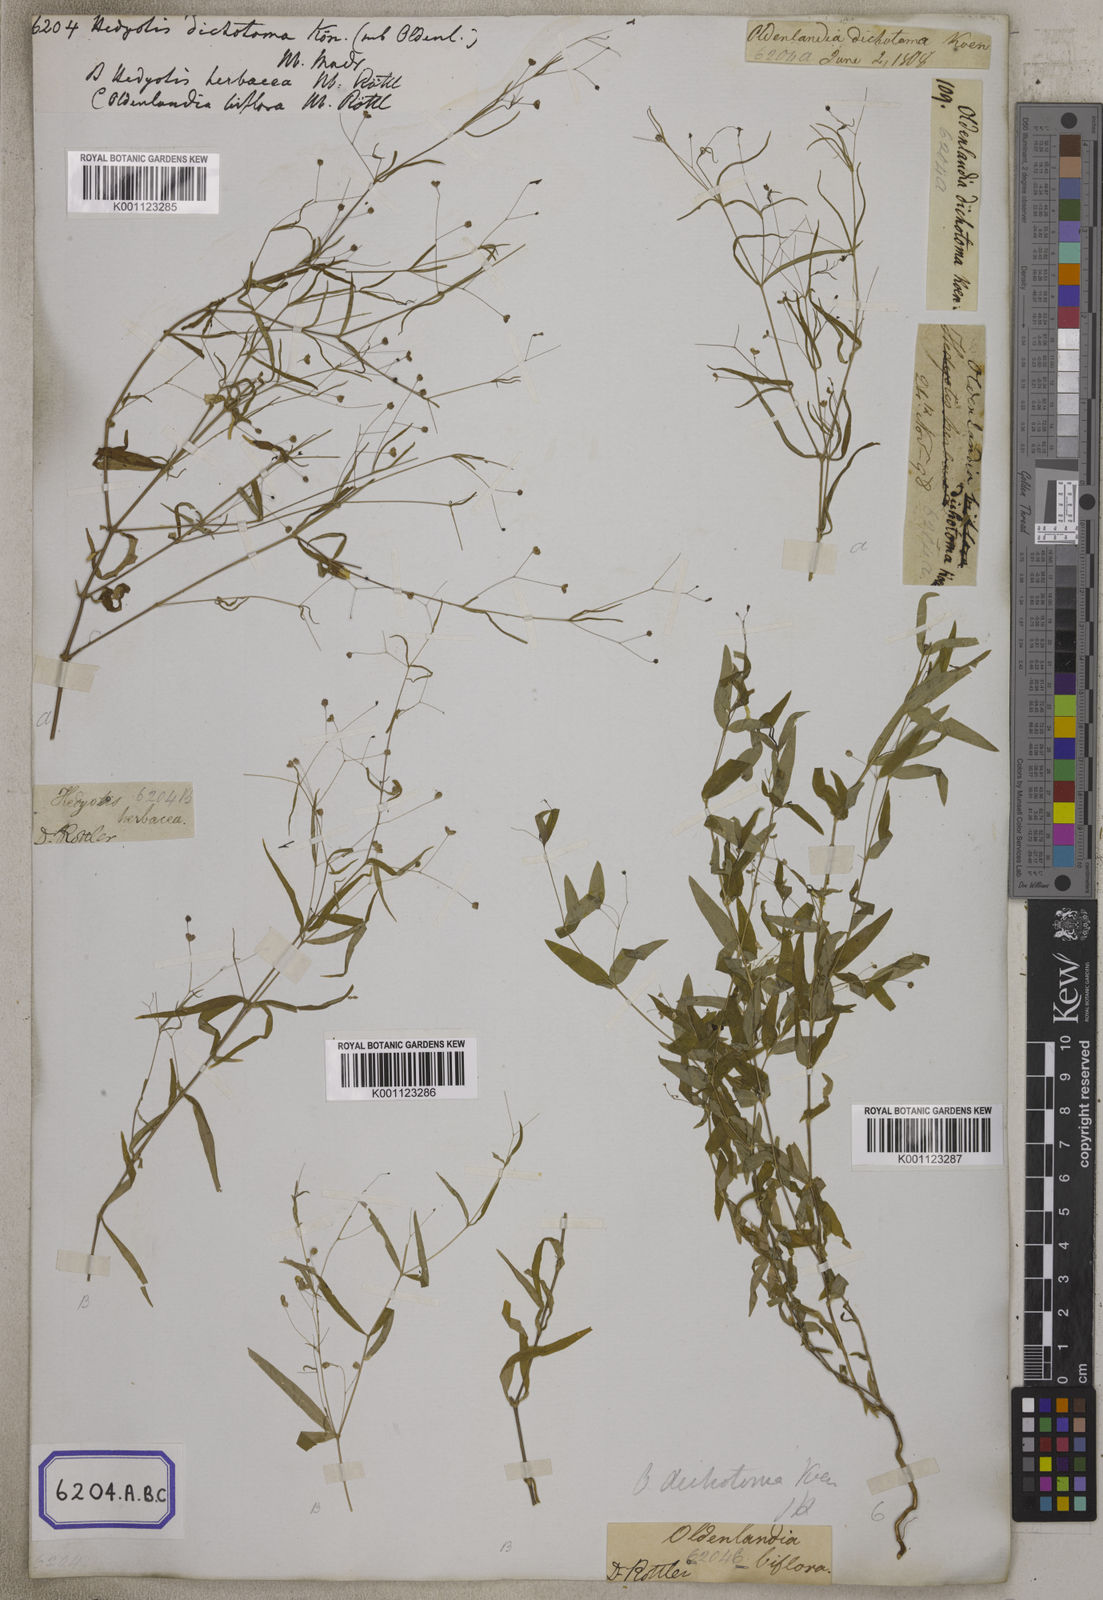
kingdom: Plantae
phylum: Tracheophyta
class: Magnoliopsida
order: Gentianales
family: Rubiaceae
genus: Oldenlandia
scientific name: Oldenlandia affinis
